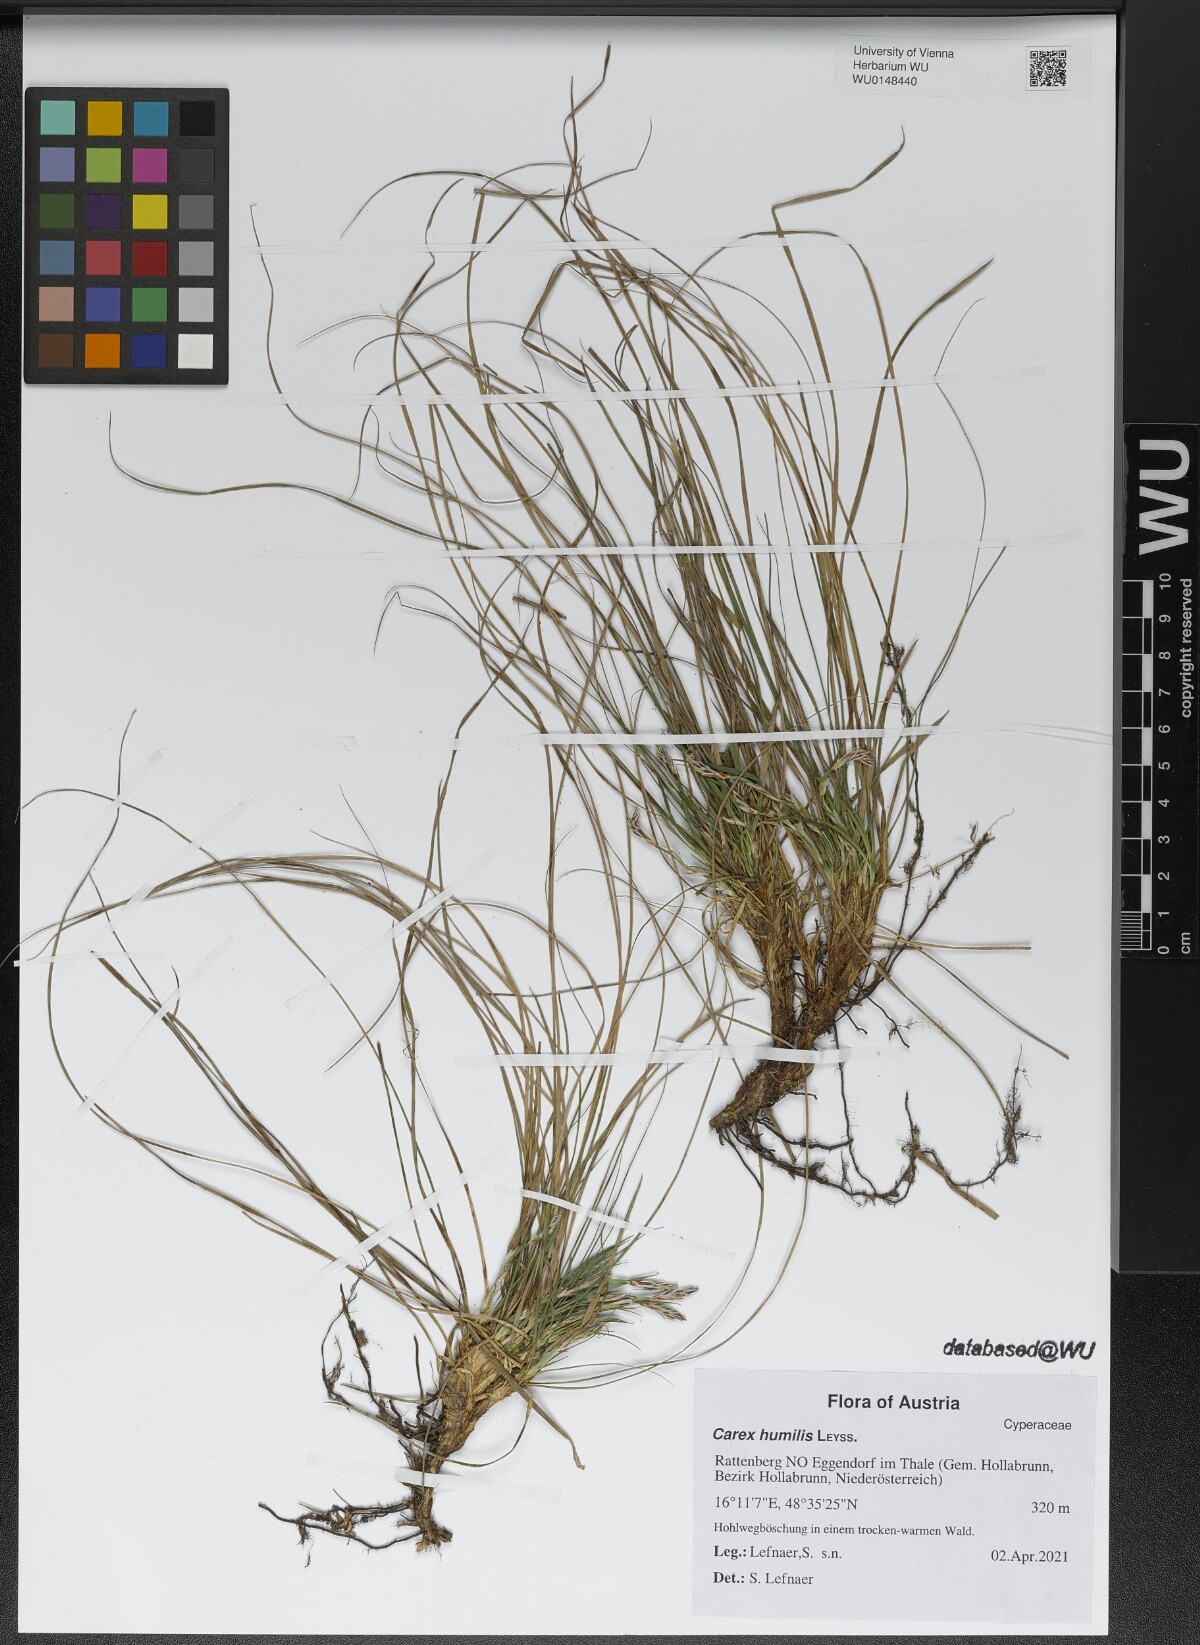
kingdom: Plantae
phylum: Tracheophyta
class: Liliopsida
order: Poales
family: Cyperaceae
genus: Carex
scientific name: Carex humilis
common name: Dwarf sedge
